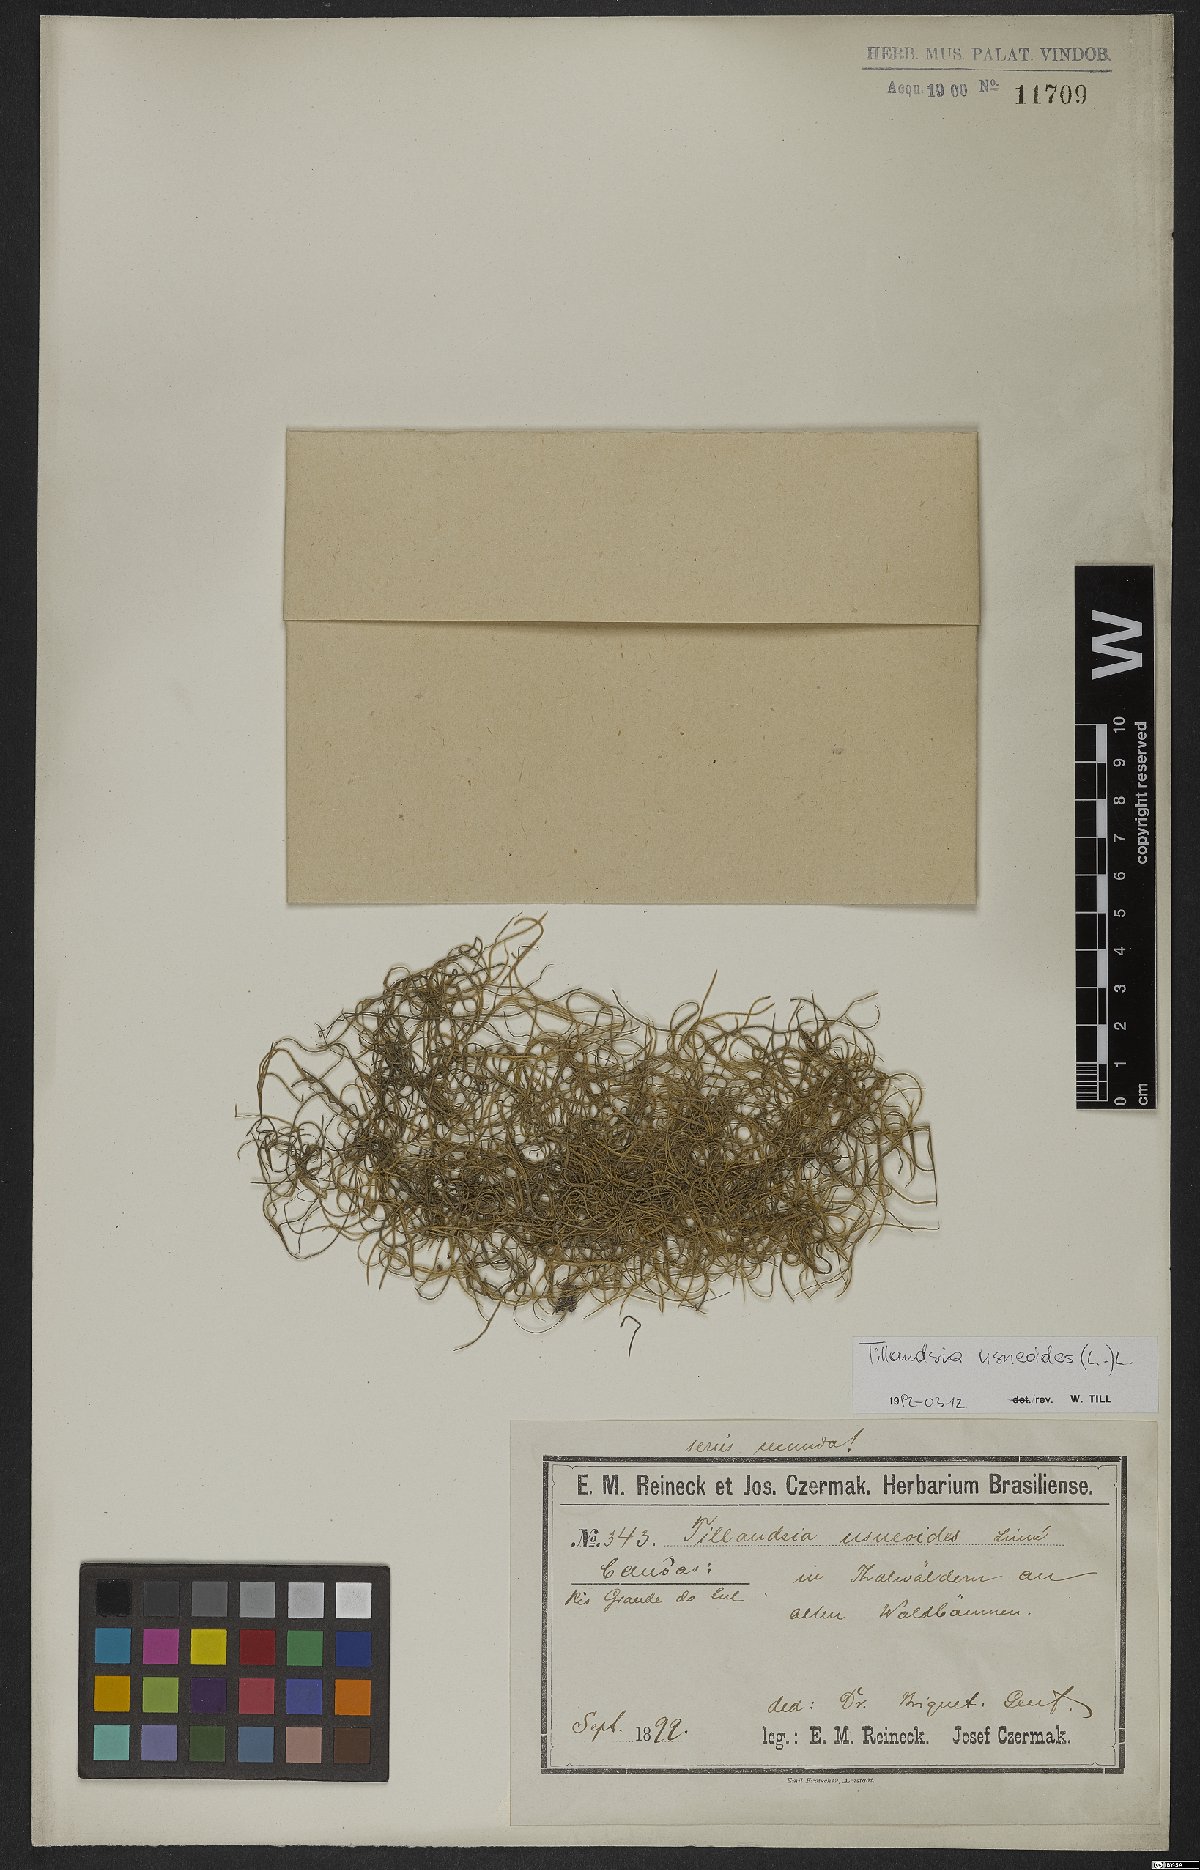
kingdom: Plantae
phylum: Tracheophyta
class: Liliopsida
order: Poales
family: Bromeliaceae
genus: Tillandsia
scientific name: Tillandsia usneoides
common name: Spanish moss
